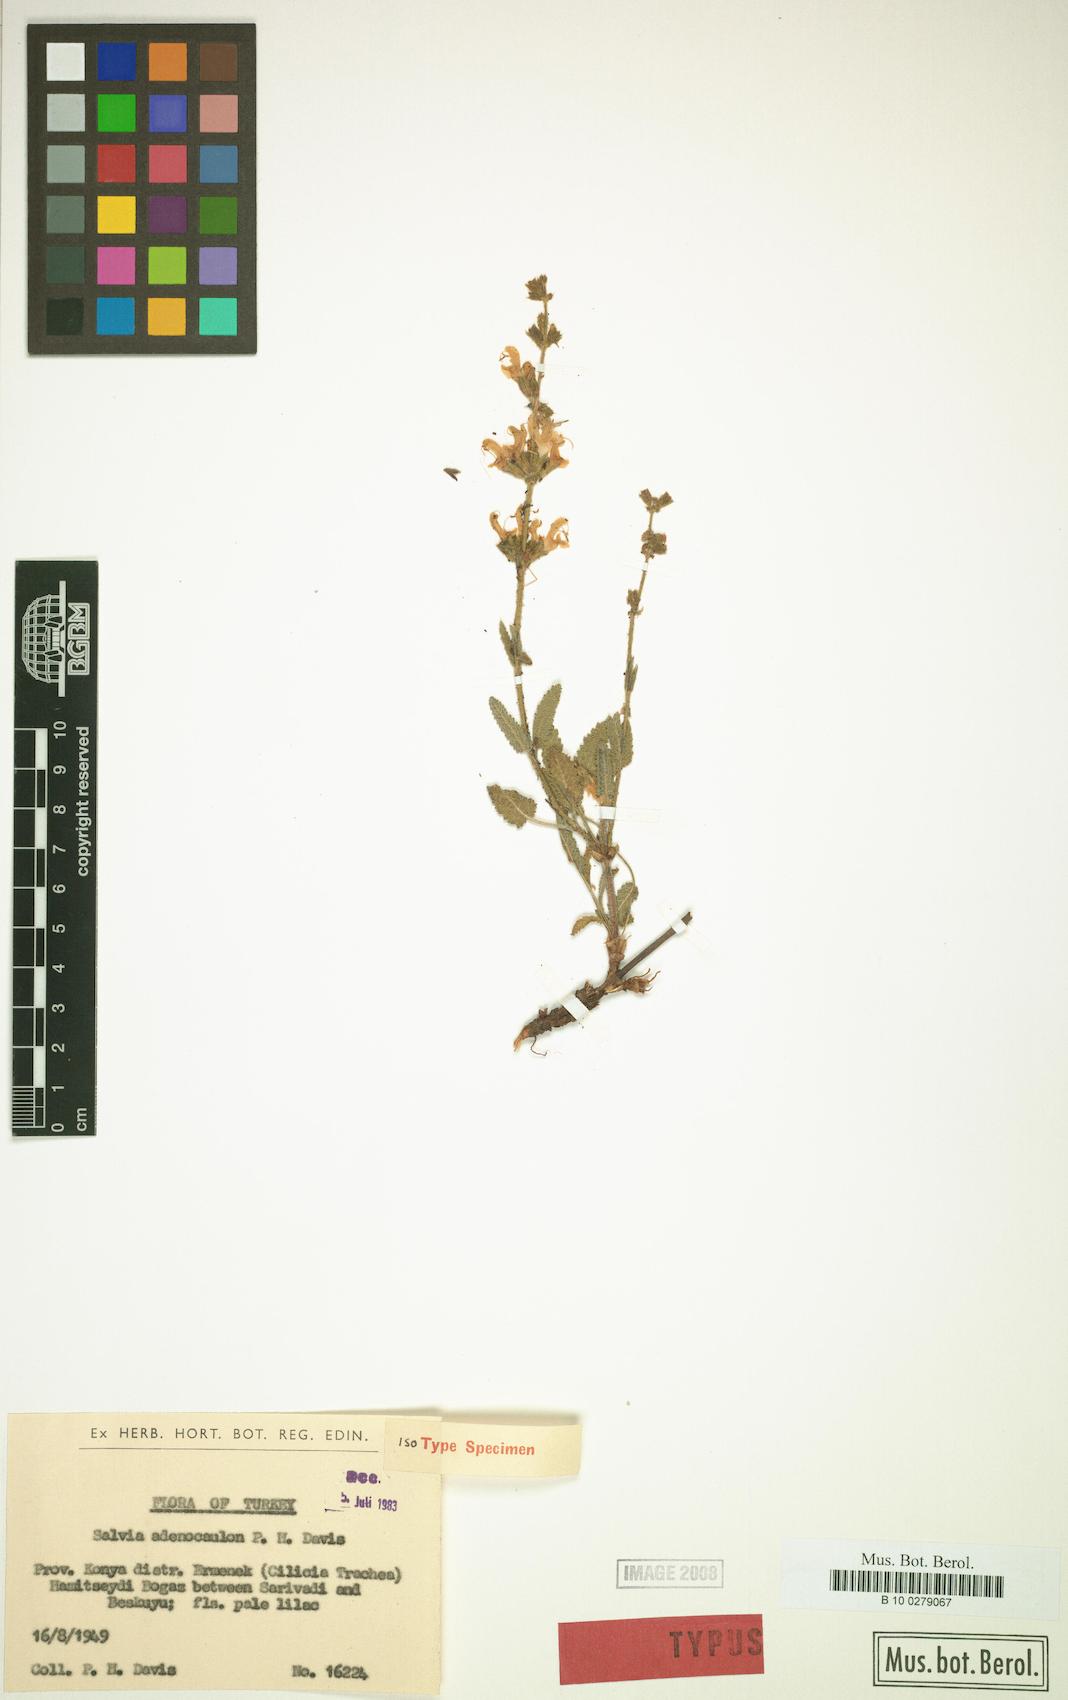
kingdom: Plantae
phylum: Tracheophyta
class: Magnoliopsida
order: Lamiales
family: Lamiaceae
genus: Salvia
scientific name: Salvia adenocaulon
